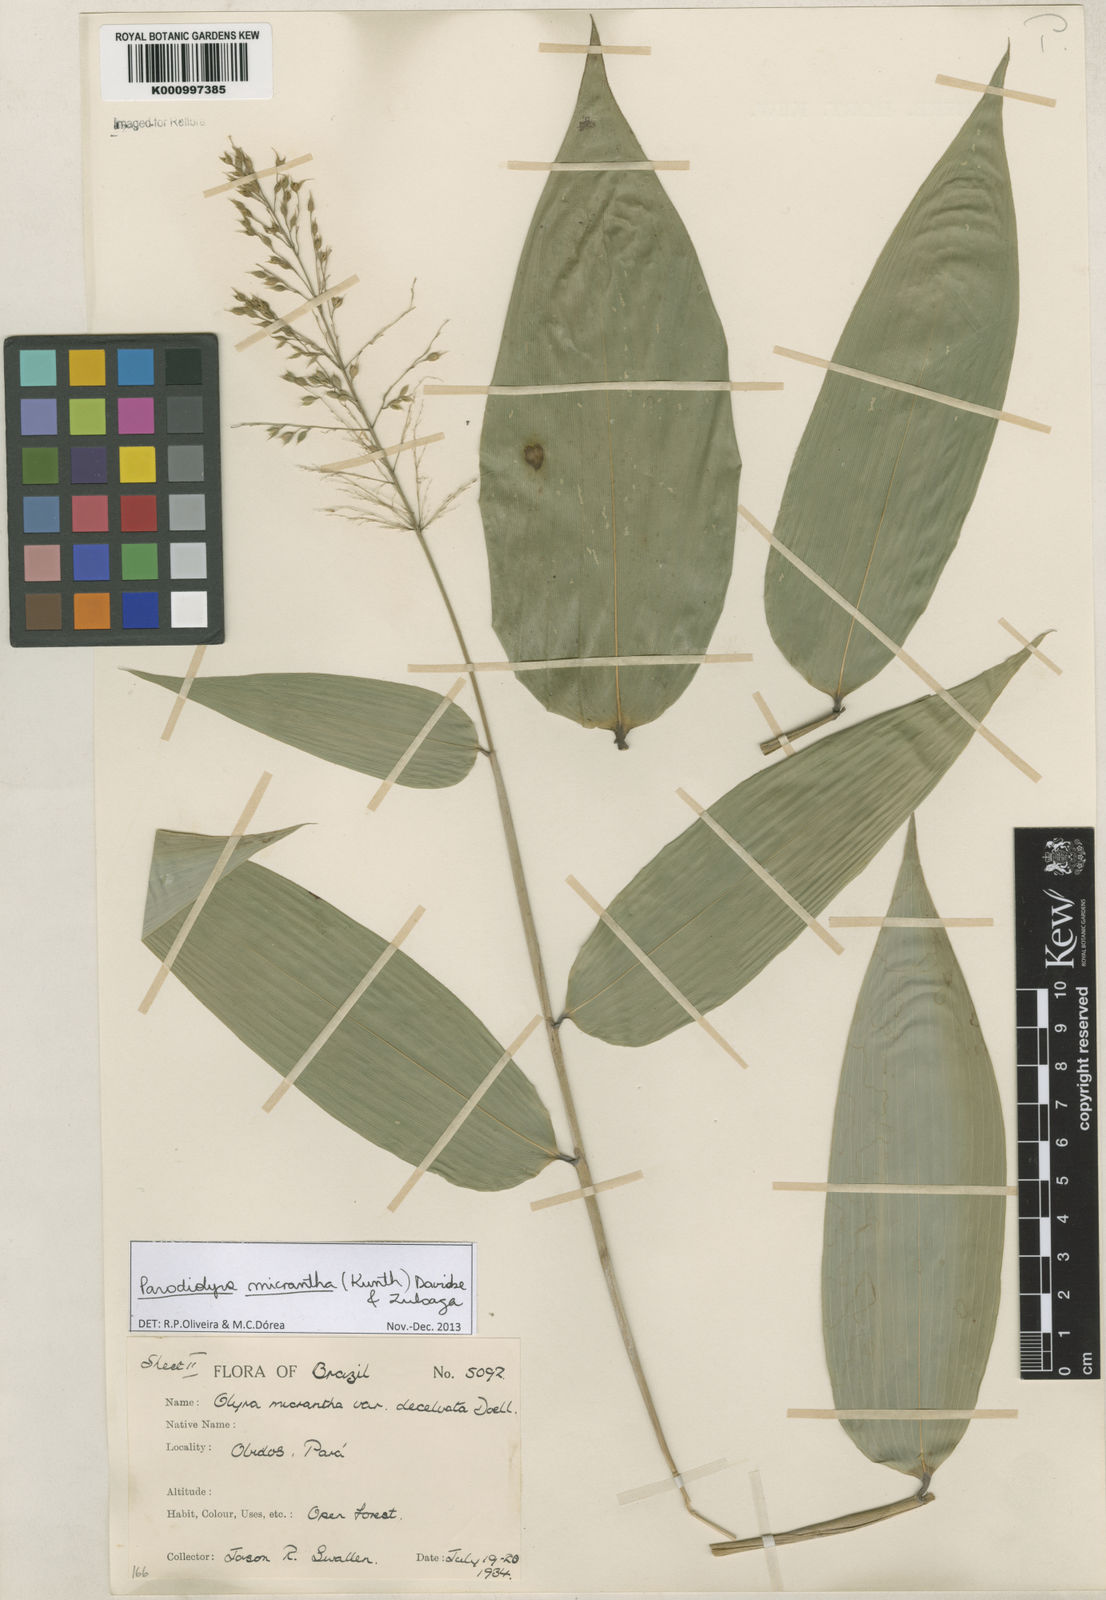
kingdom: Plantae
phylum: Tracheophyta
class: Liliopsida
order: Poales
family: Poaceae
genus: Taquara
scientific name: Taquara micrantha
